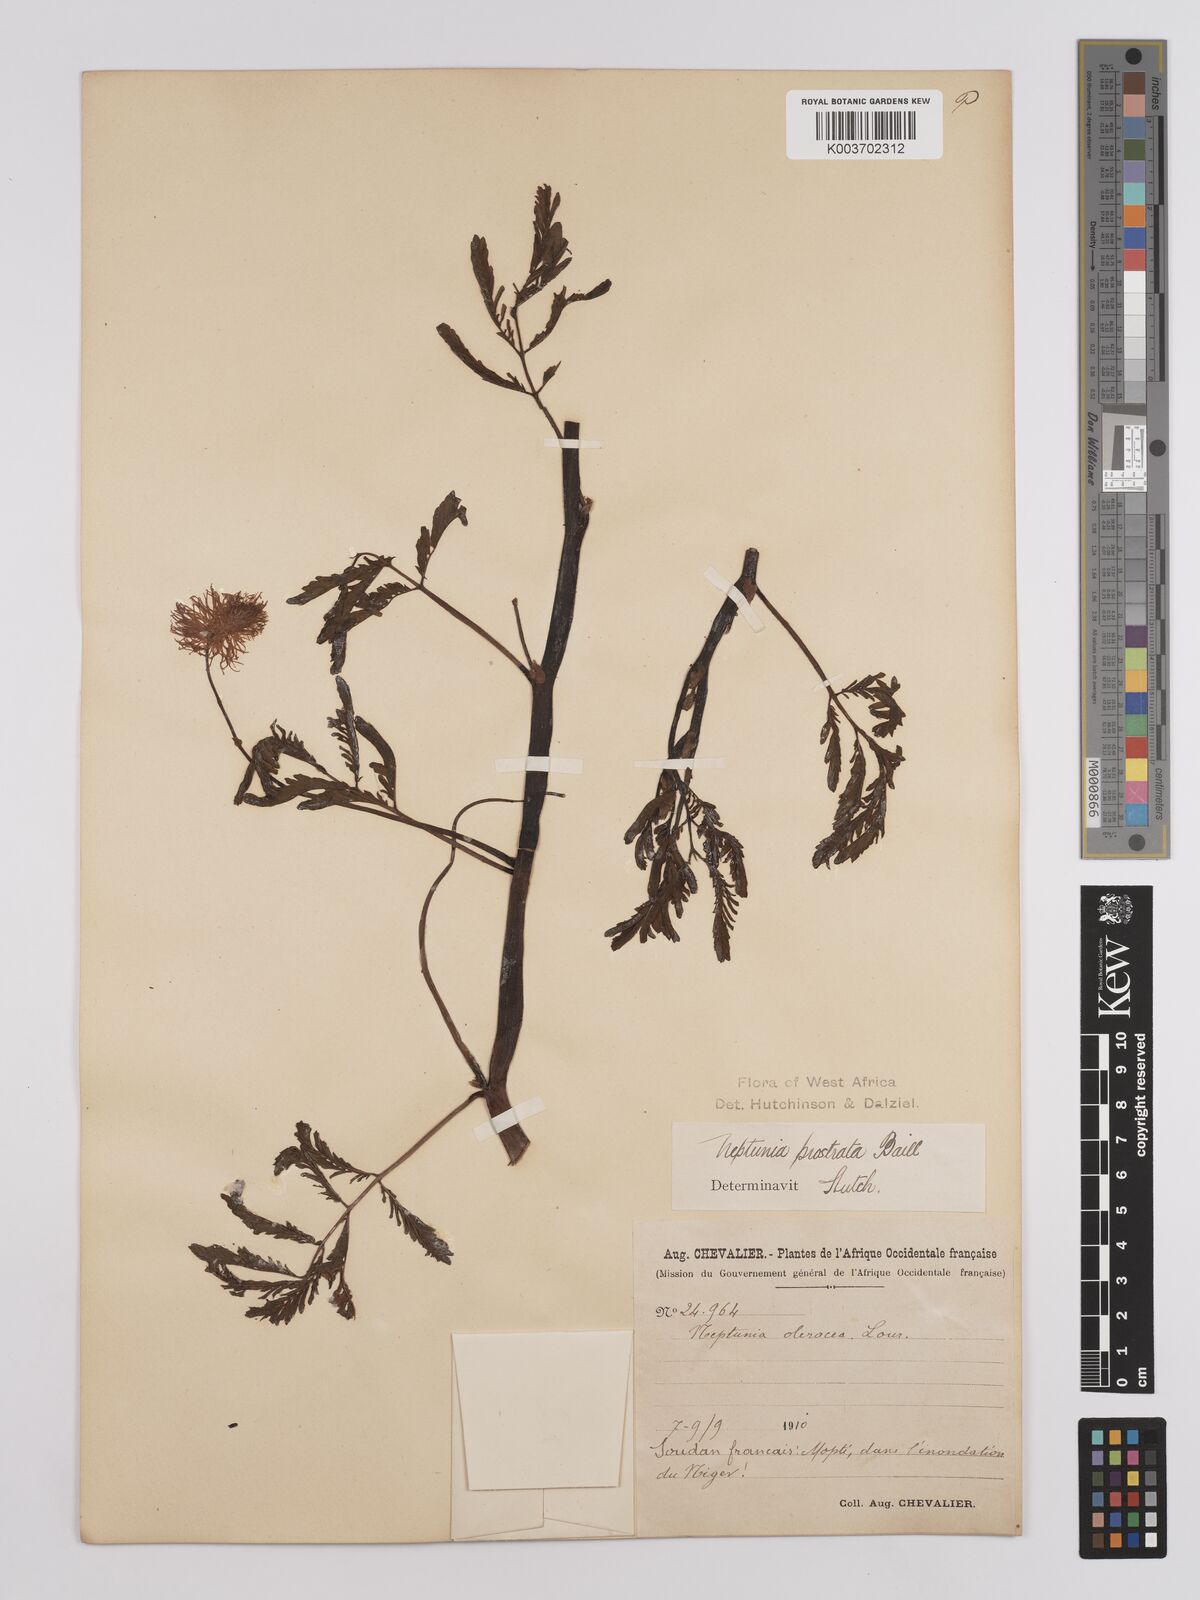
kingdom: Plantae
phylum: Tracheophyta
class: Magnoliopsida
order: Fabales
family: Fabaceae
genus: Neptunia
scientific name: Neptunia prostrata
